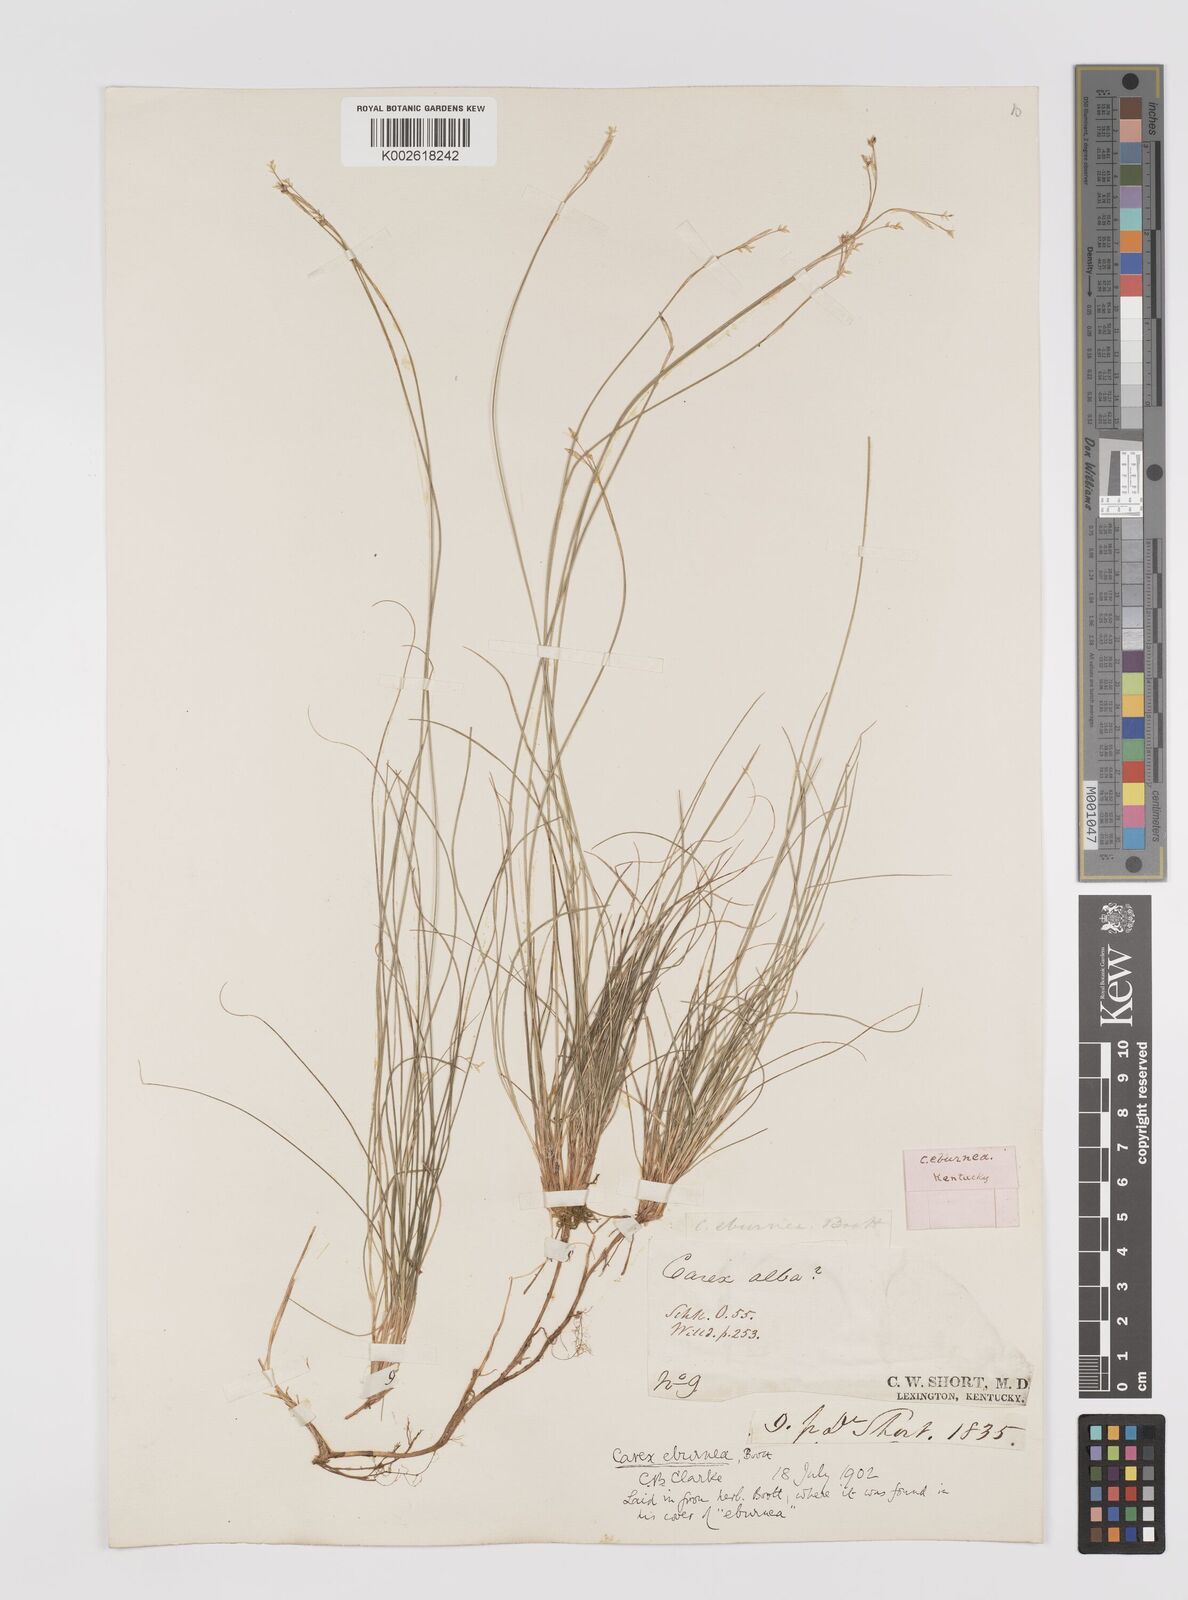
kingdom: Plantae
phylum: Tracheophyta
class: Liliopsida
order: Poales
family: Cyperaceae
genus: Carex
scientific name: Carex eburnea
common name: Bristle-leaved sedge
